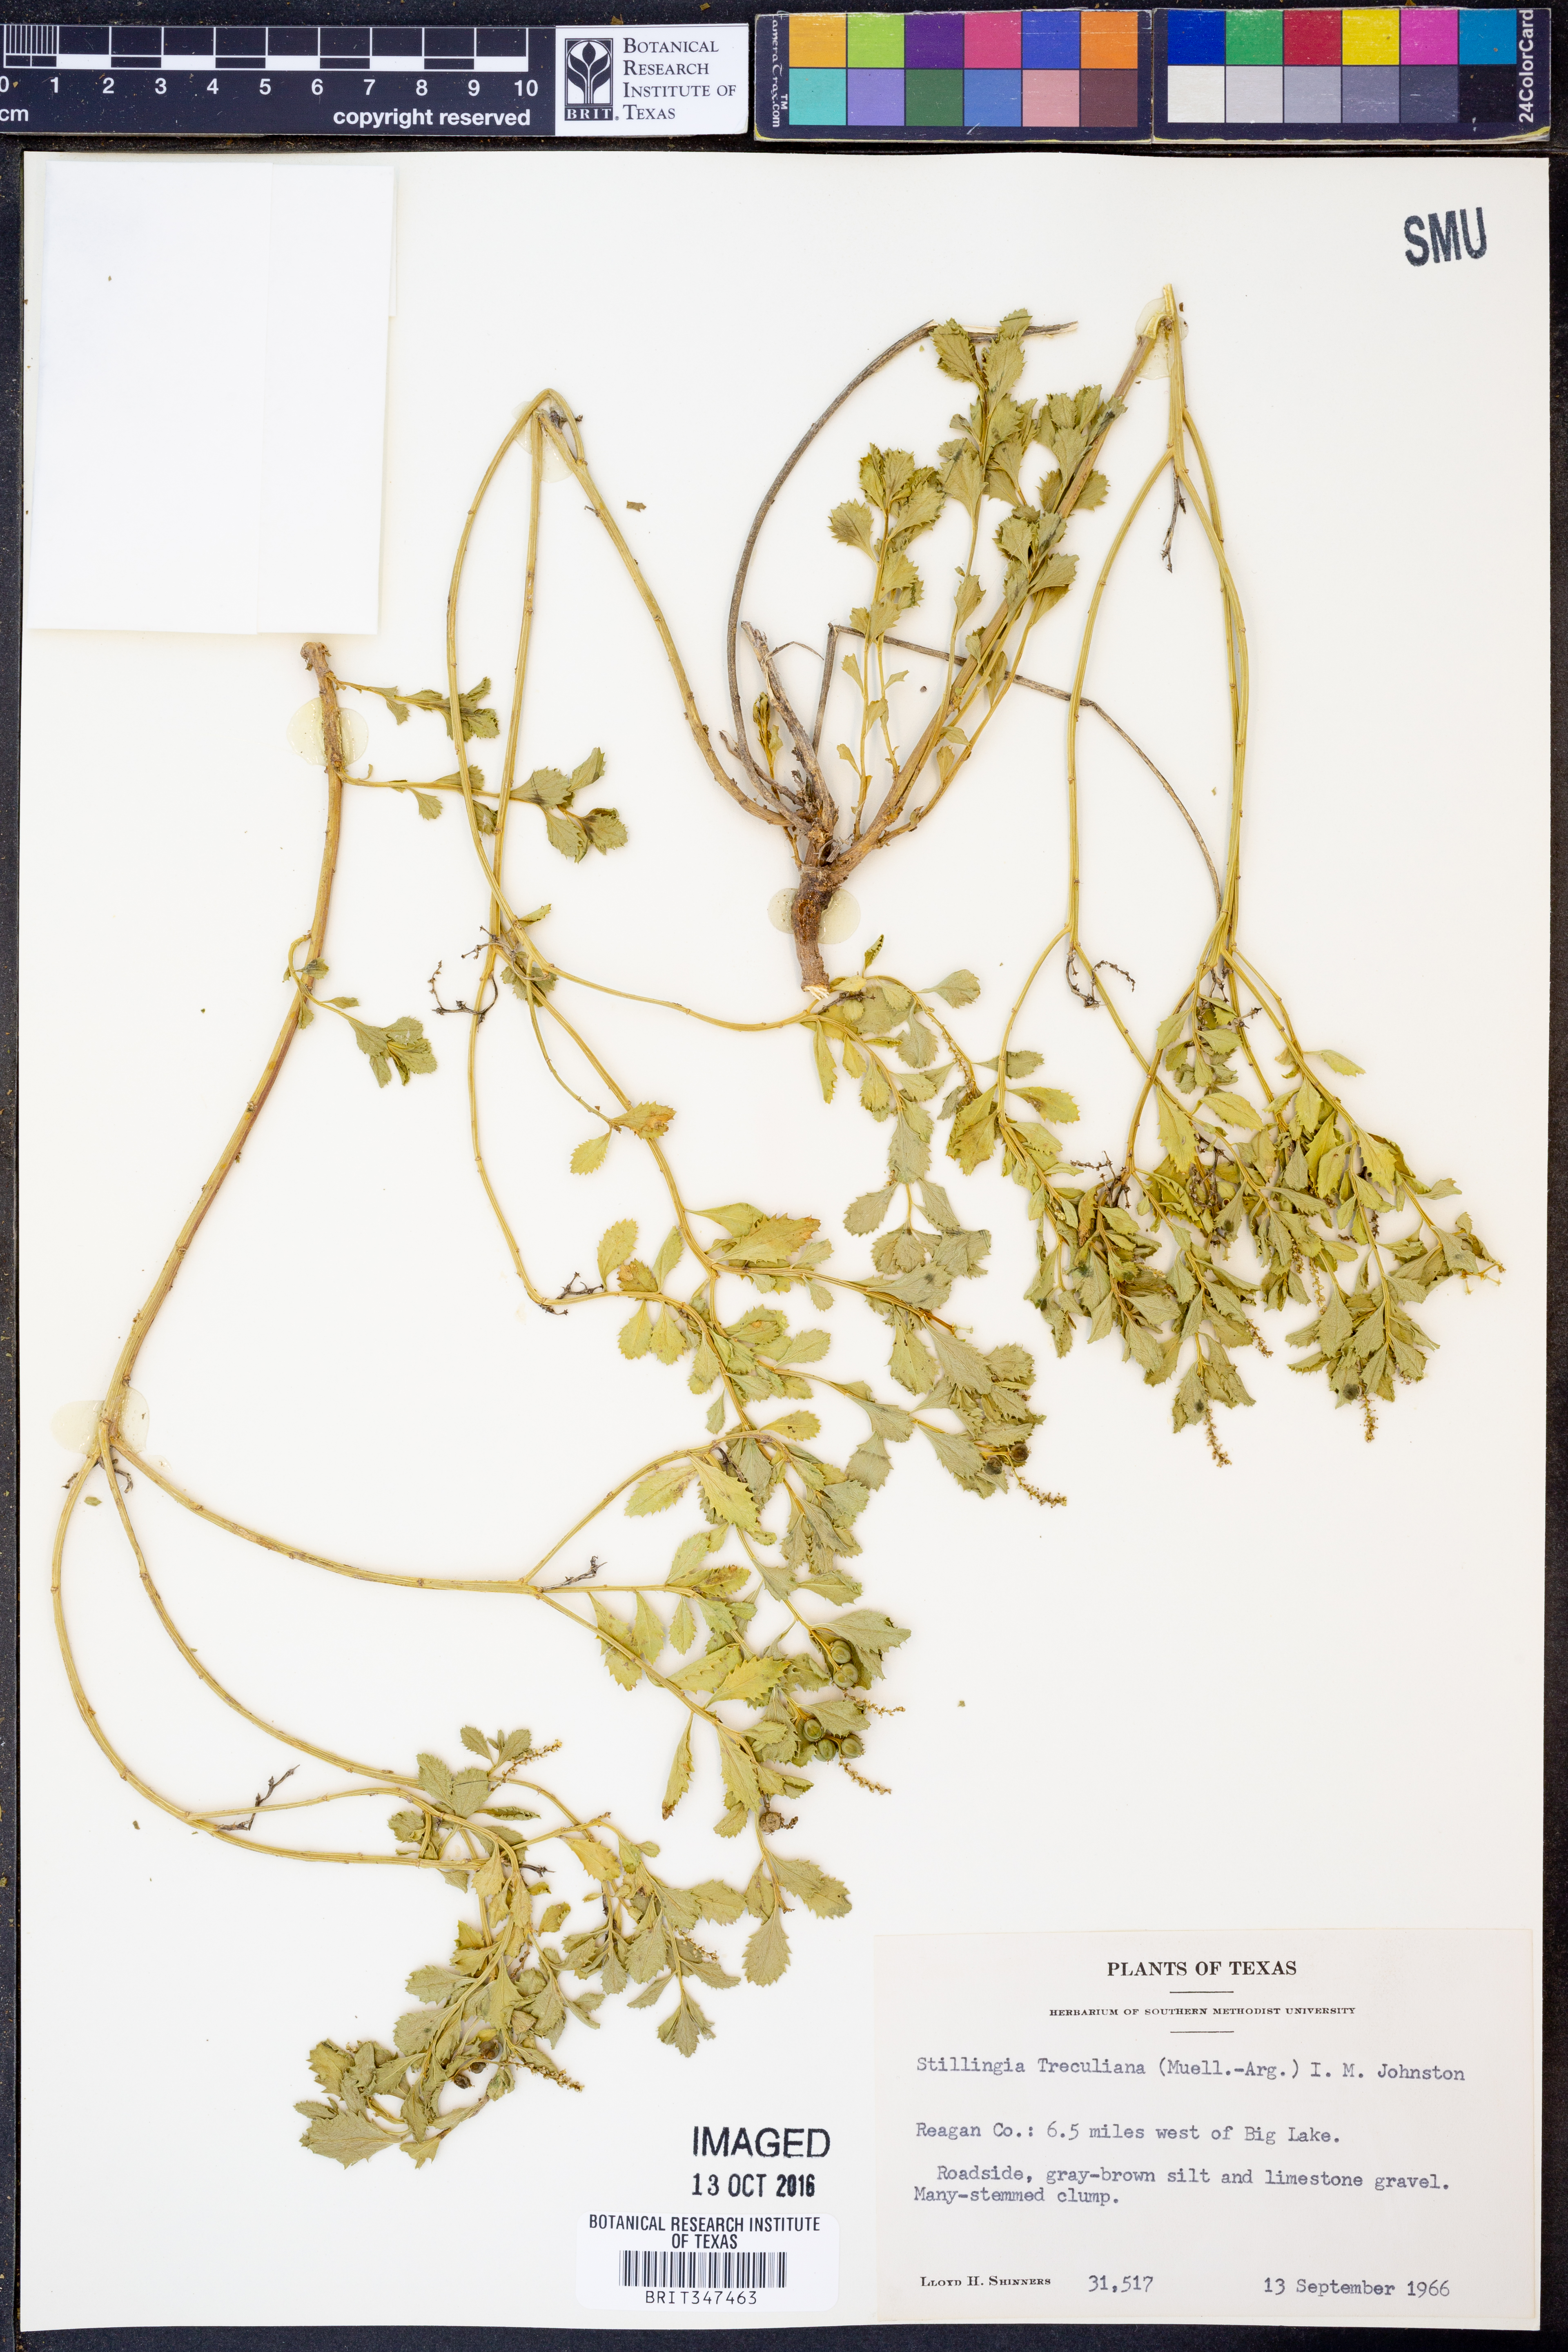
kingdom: Plantae
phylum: Tracheophyta
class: Magnoliopsida
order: Malpighiales
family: Euphorbiaceae
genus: Stillingia
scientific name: Stillingia treculiana
